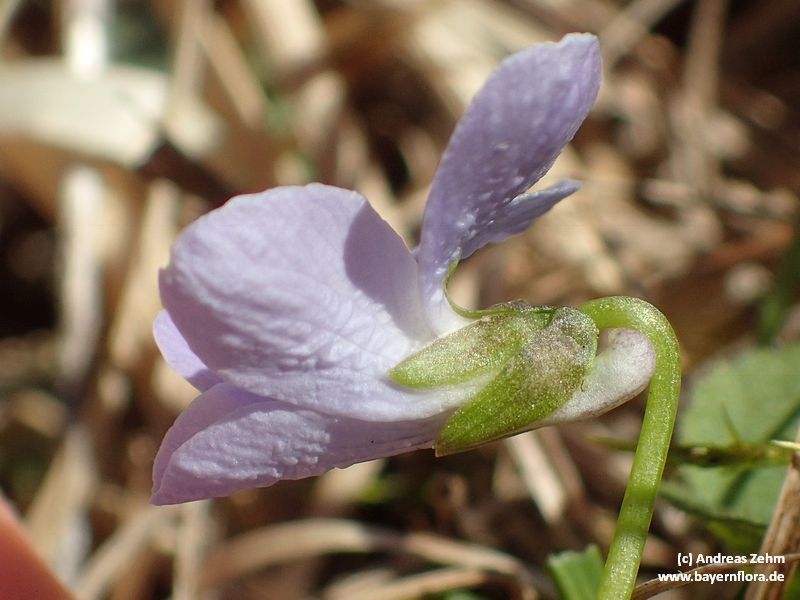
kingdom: Plantae
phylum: Tracheophyta
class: Magnoliopsida
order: Malpighiales
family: Violaceae
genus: Viola
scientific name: Viola hirta
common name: Hairy violet
